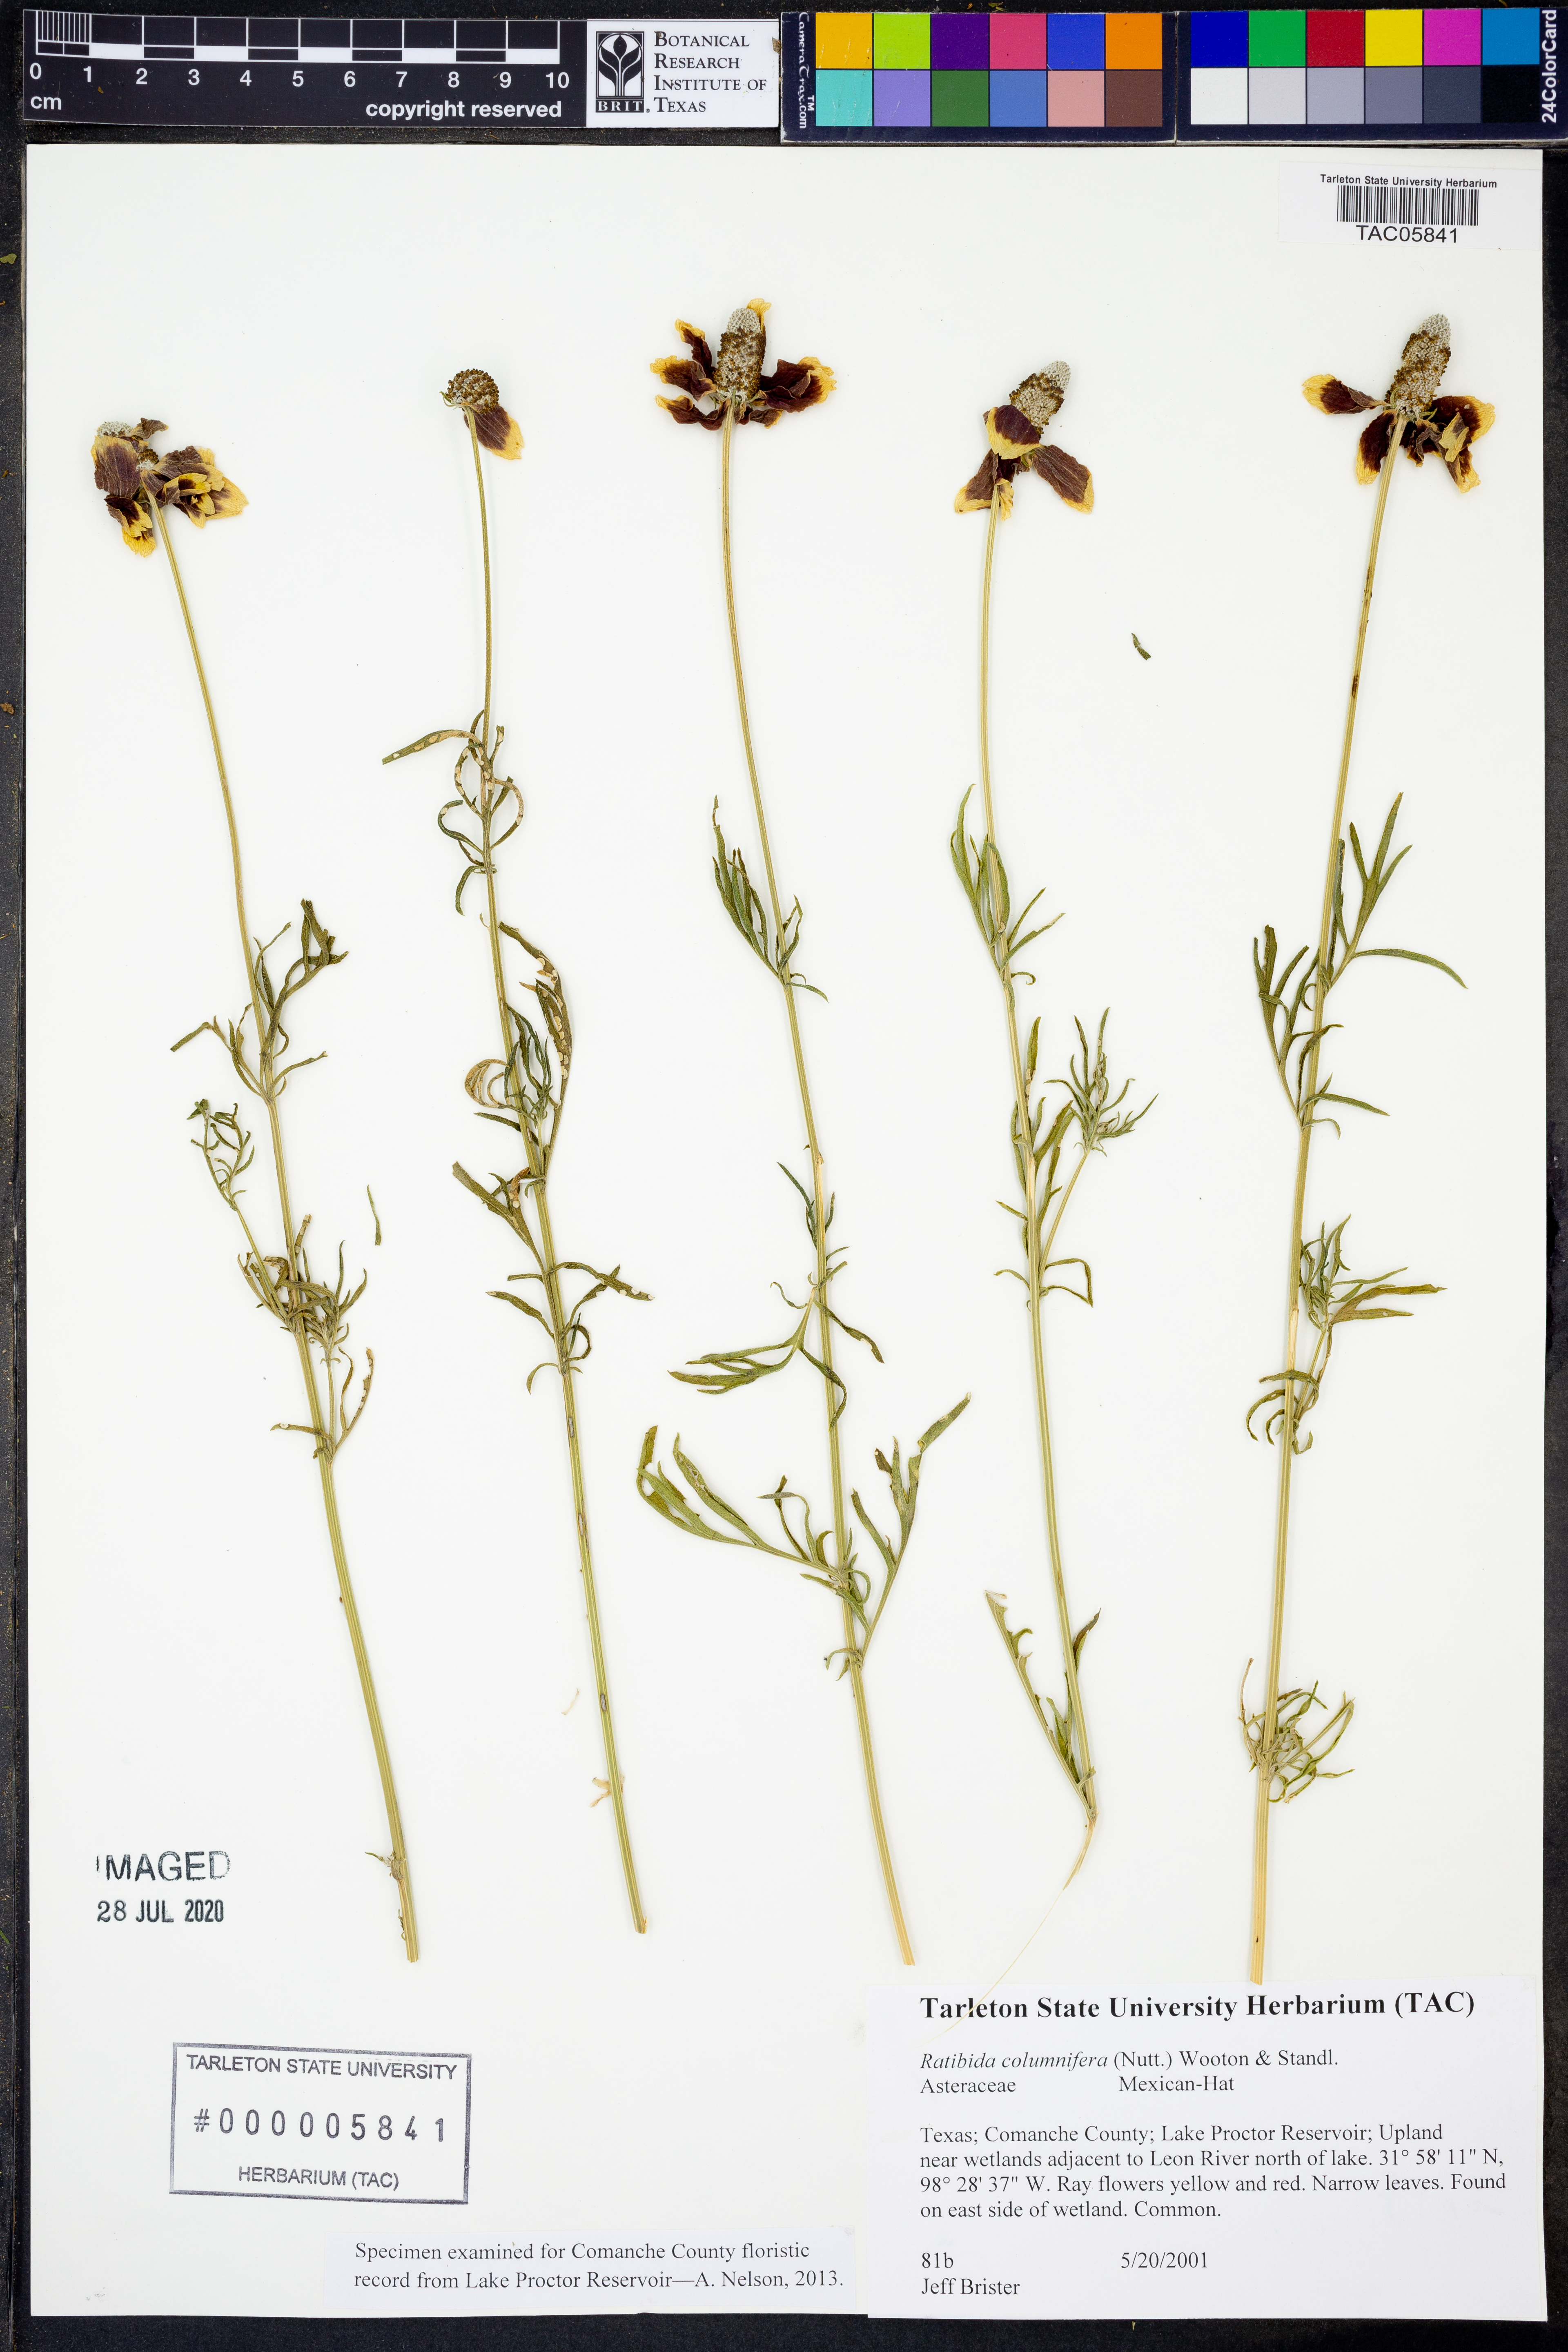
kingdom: Plantae
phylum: Tracheophyta
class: Magnoliopsida
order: Asterales
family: Asteraceae
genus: Ratibida
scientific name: Ratibida columnifera
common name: Prairie coneflower
